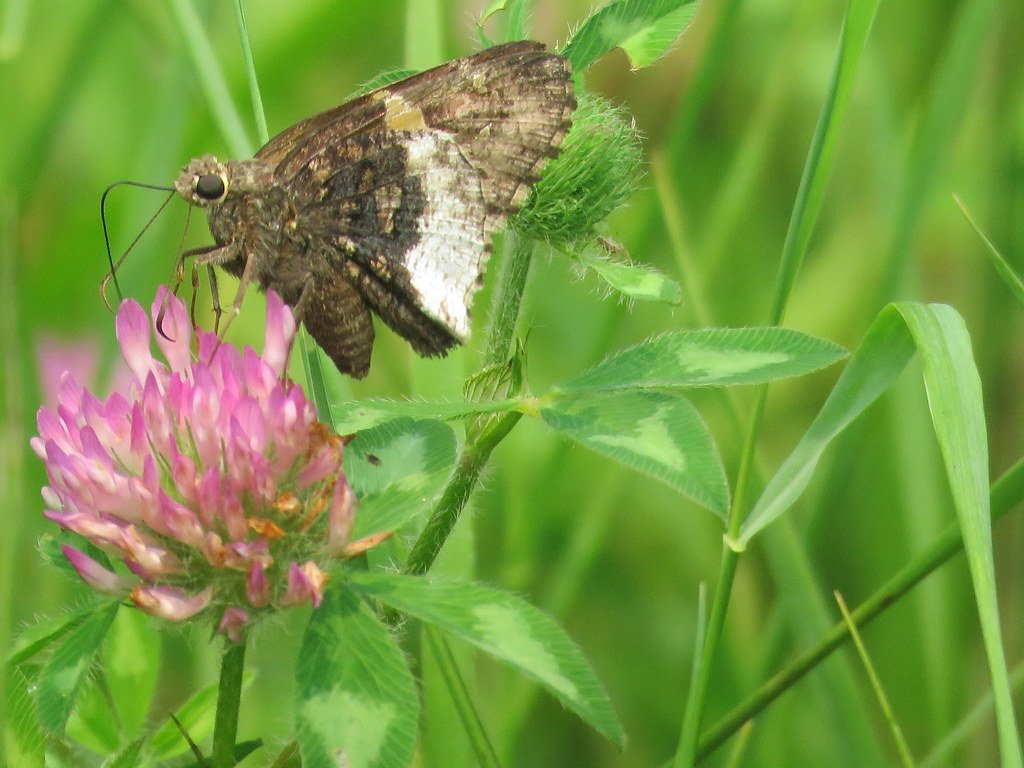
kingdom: Animalia
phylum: Arthropoda
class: Insecta
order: Lepidoptera
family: Hesperiidae
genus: Achalarus
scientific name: Achalarus lyciades
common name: Hoary Edge
